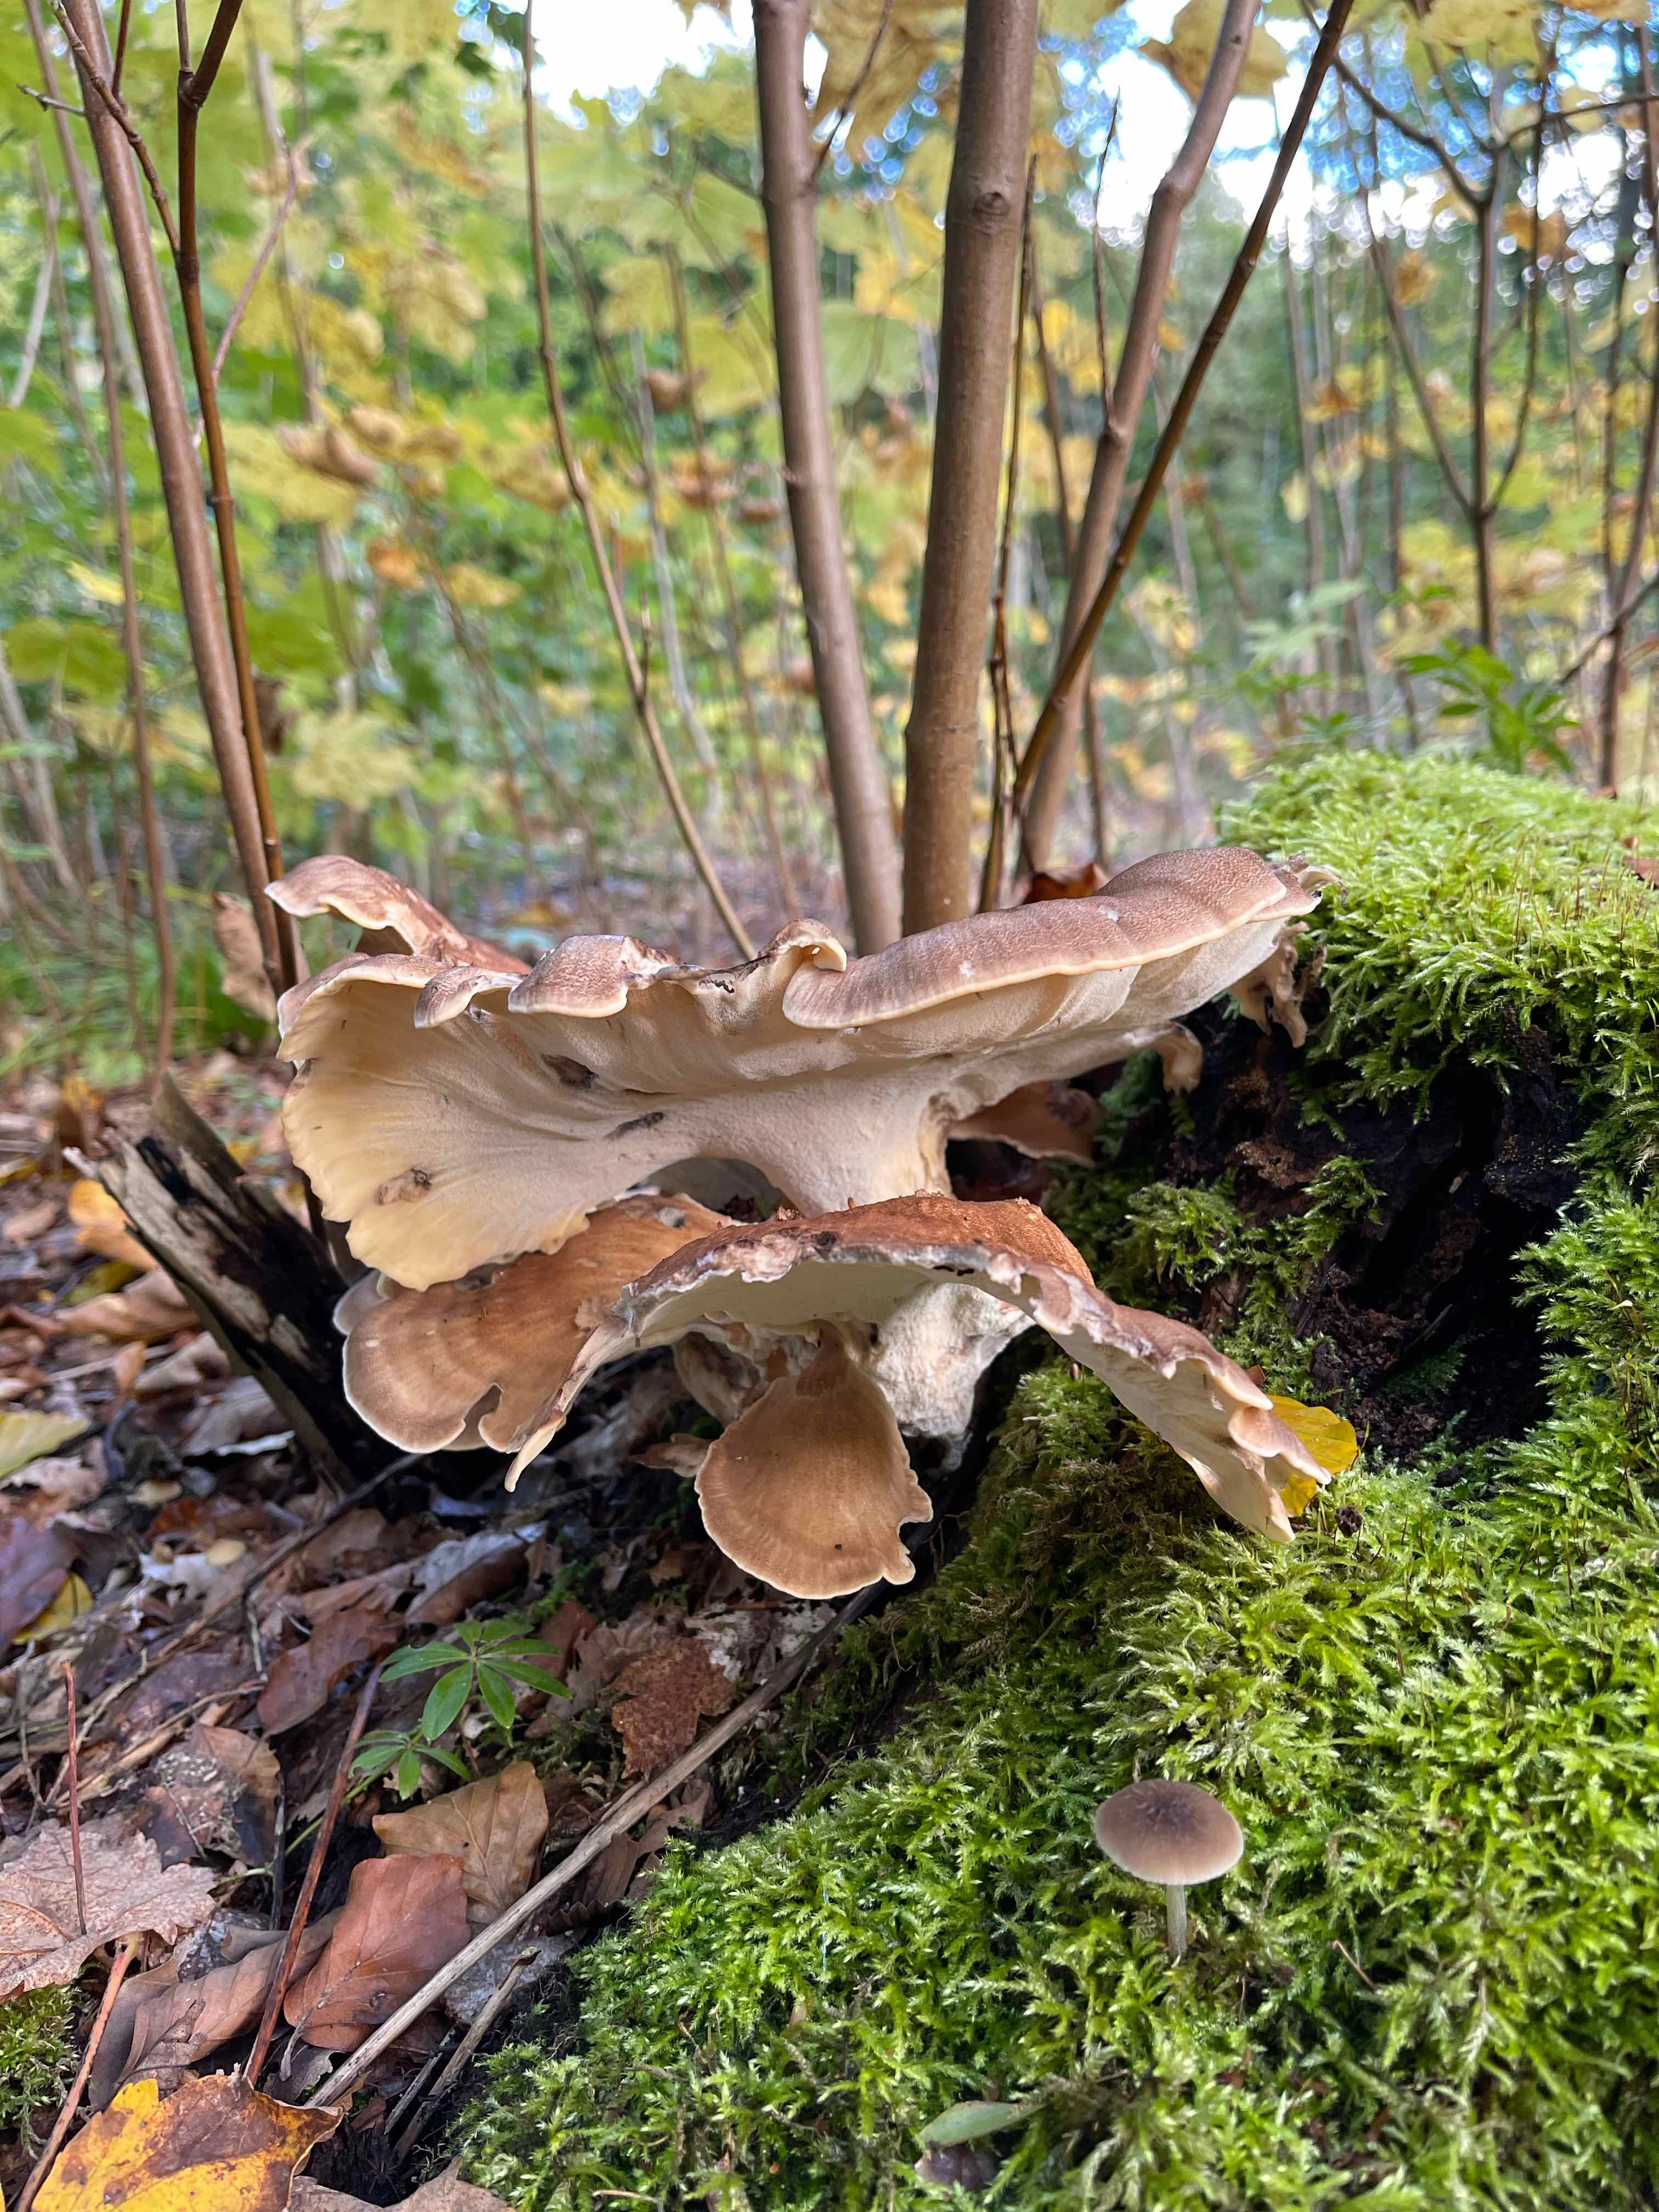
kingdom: Fungi
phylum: Basidiomycota
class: Agaricomycetes
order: Polyporales
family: Meripilaceae
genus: Meripilus
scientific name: Meripilus giganteus
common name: kæmpeporesvamp
